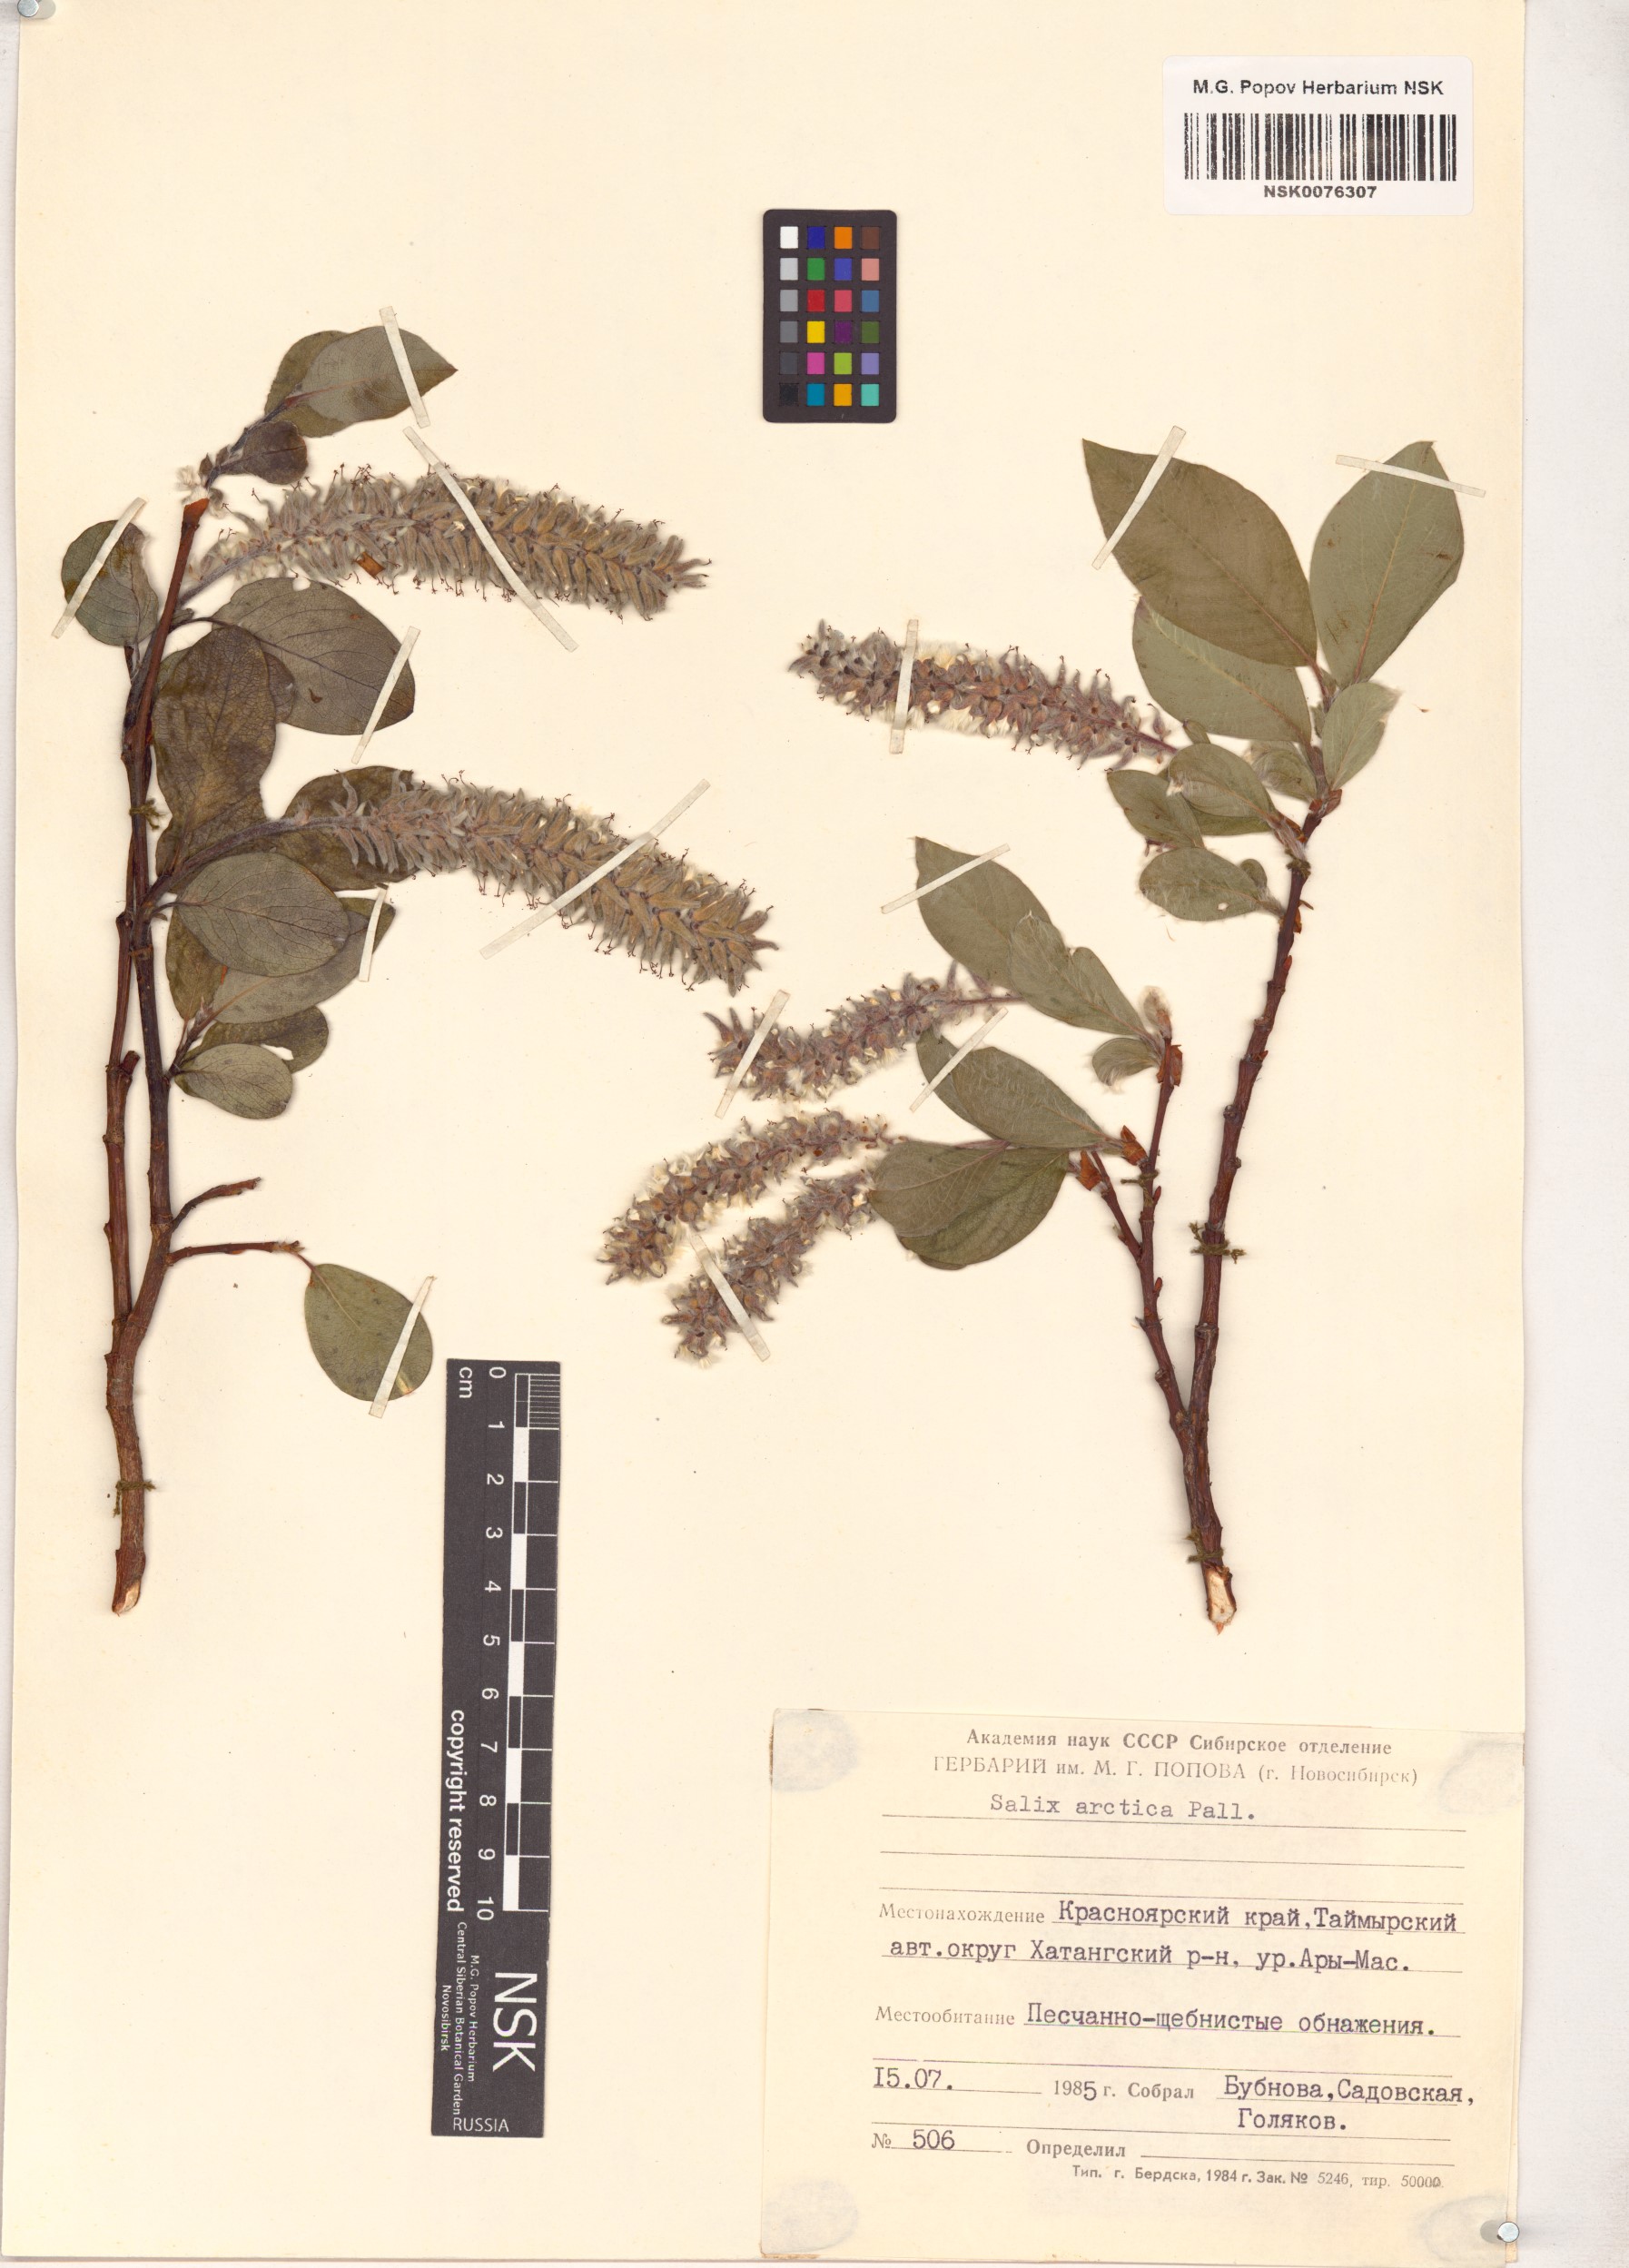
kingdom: Plantae
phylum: Tracheophyta
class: Magnoliopsida
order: Malpighiales
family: Salicaceae
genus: Salix
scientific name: Salix arctica
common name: Arctic willow
